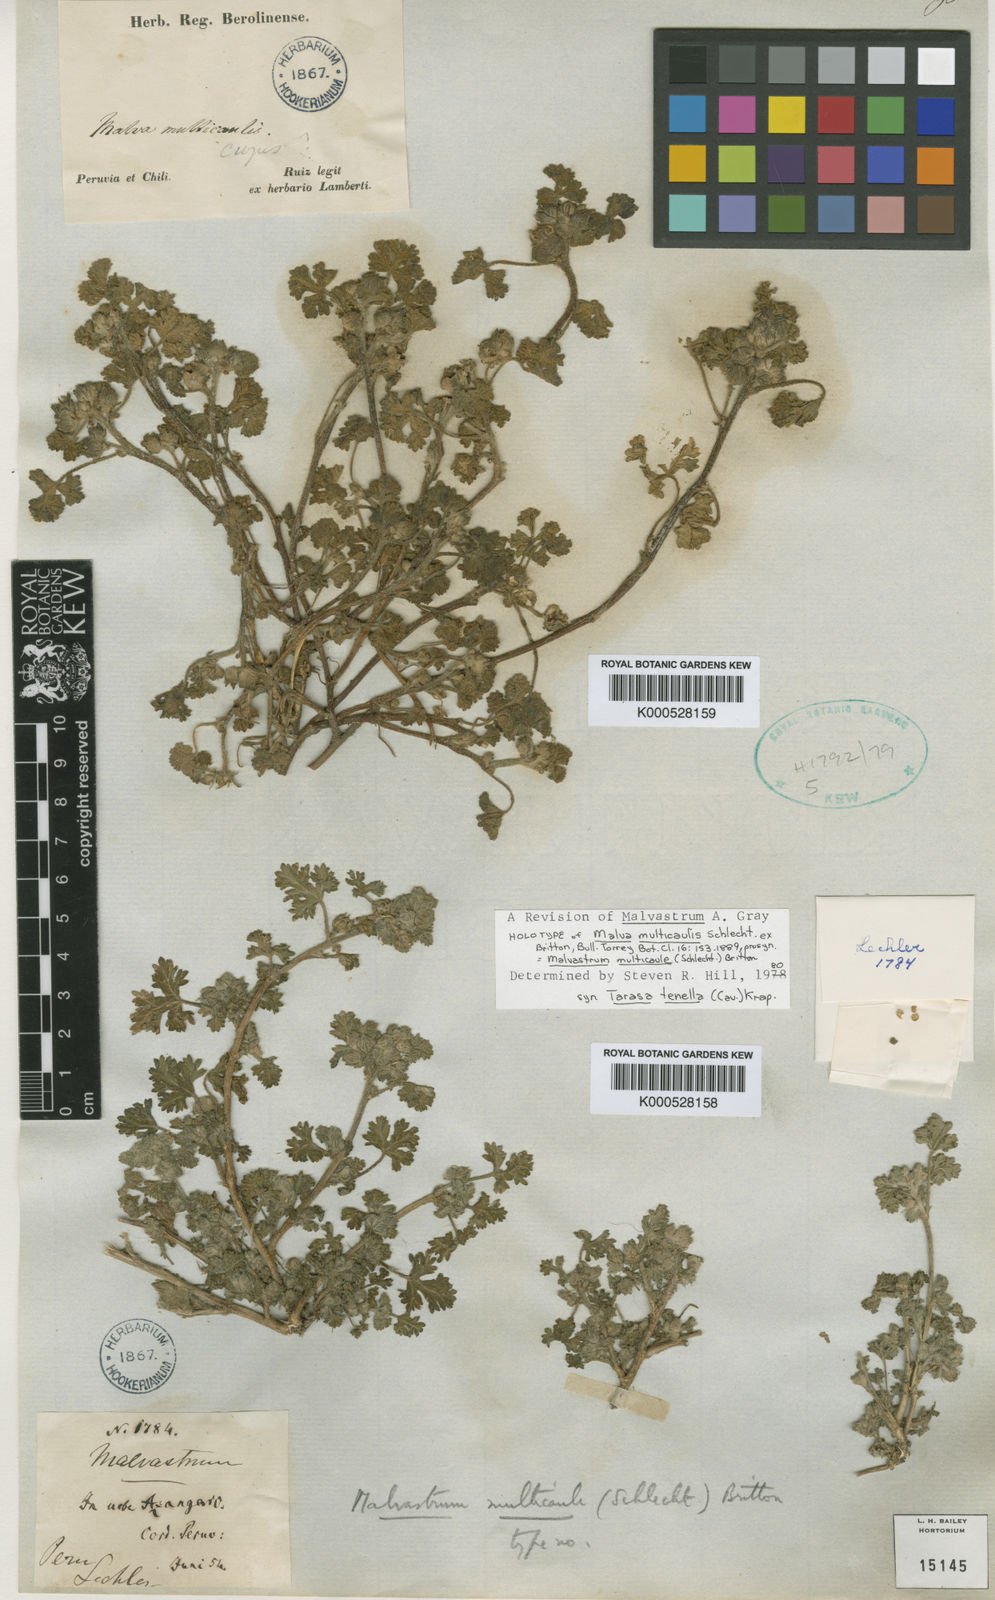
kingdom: Plantae
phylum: Tracheophyta
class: Magnoliopsida
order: Malvales
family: Malvaceae
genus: Tarasa
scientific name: Tarasa tenella
